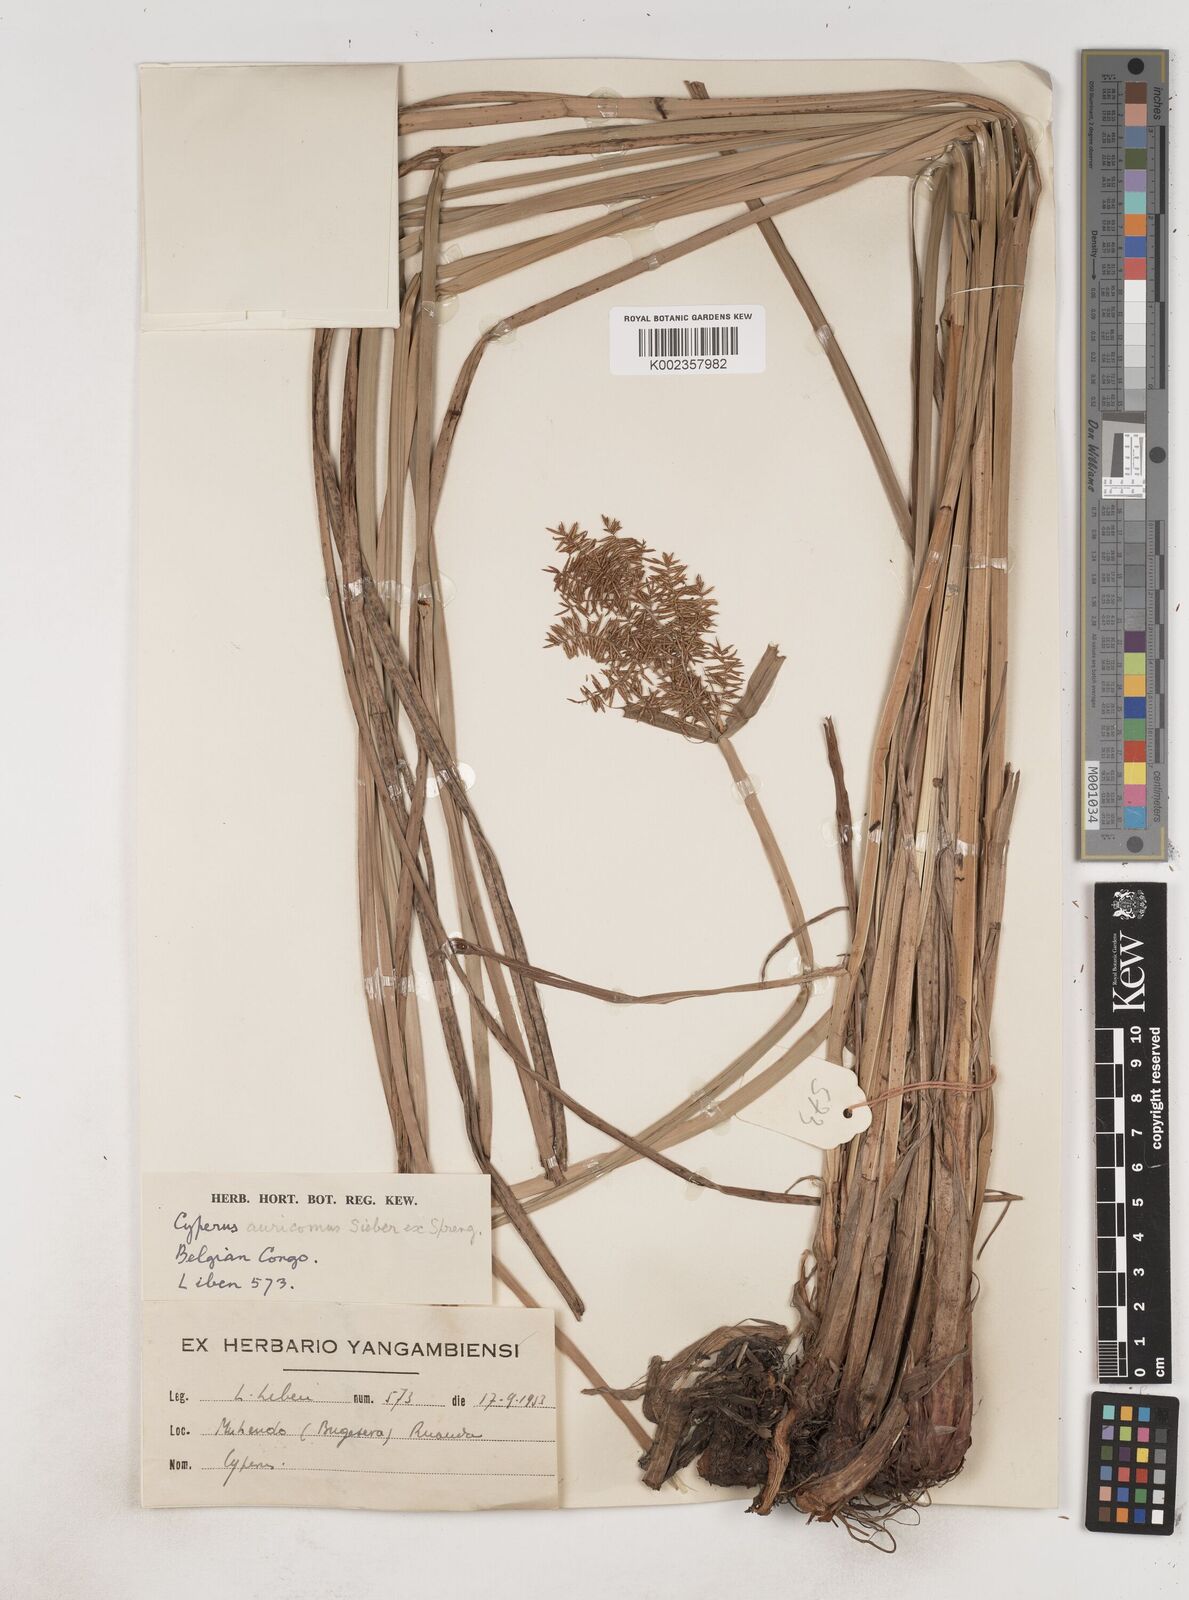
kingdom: Plantae
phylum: Tracheophyta
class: Liliopsida
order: Poales
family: Cyperaceae
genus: Cyperus
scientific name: Cyperus digitatus
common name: Finger flatsedge
